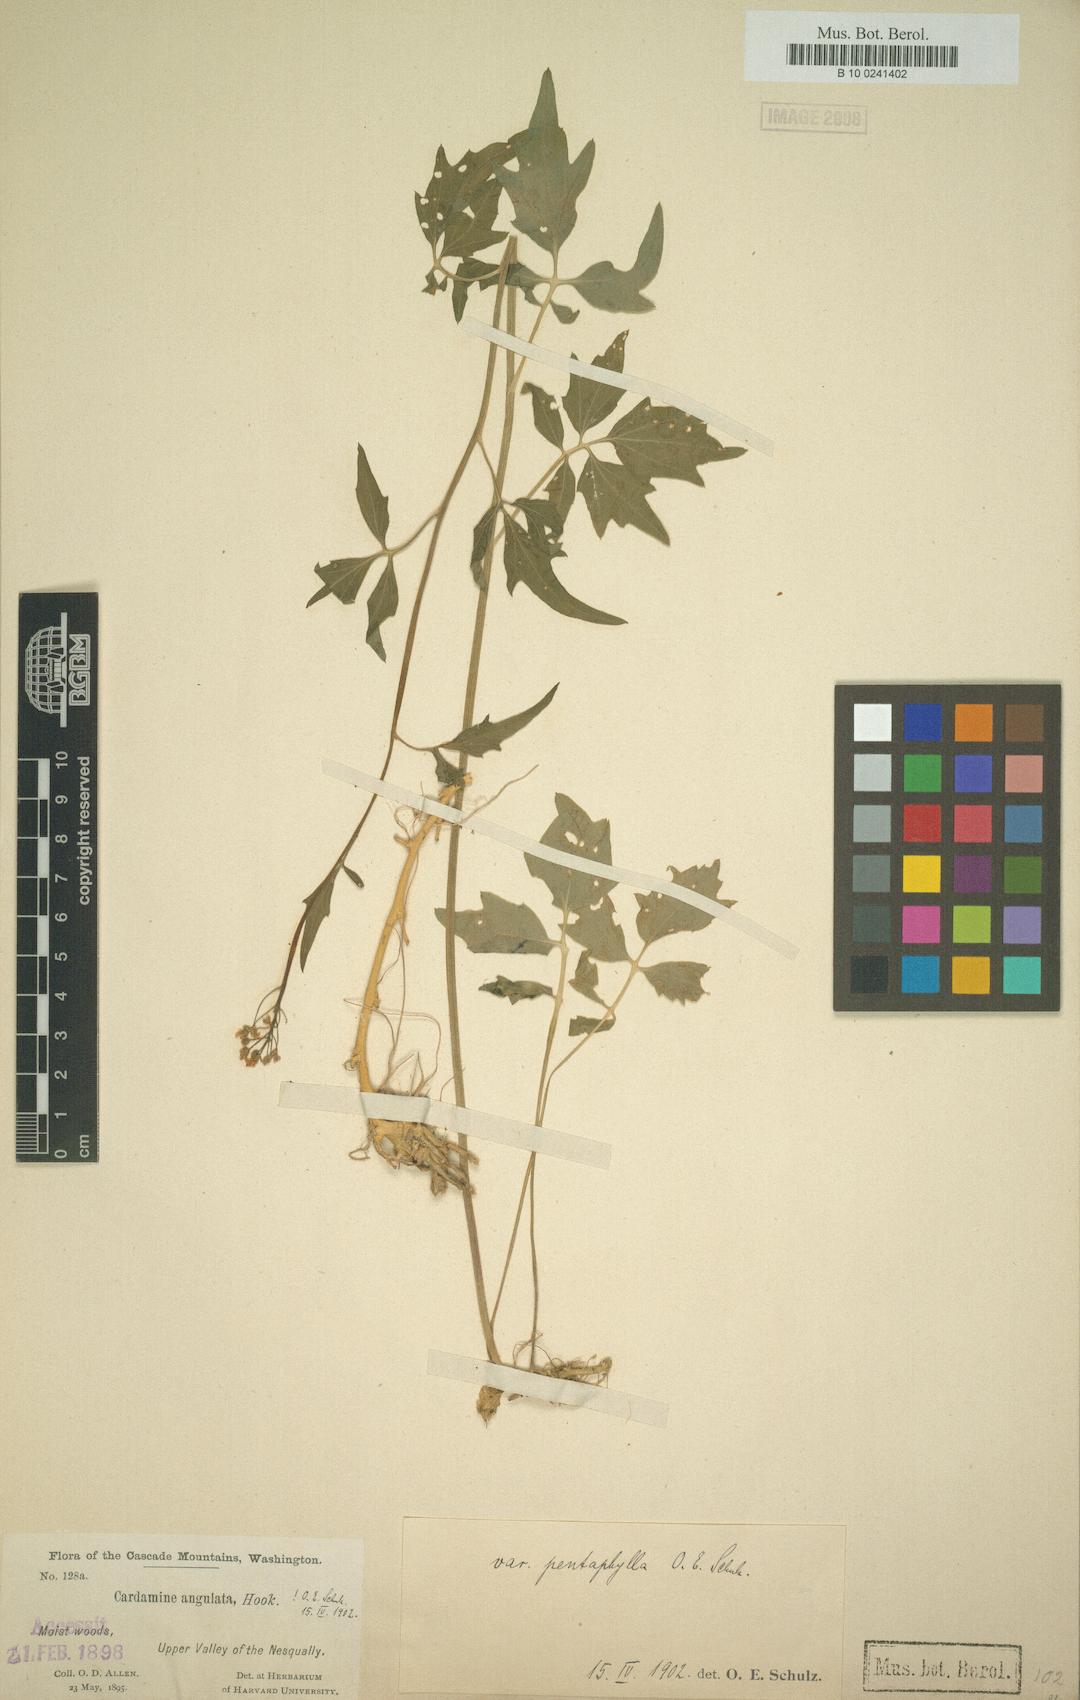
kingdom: Plantae
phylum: Tracheophyta
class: Magnoliopsida
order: Brassicales
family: Brassicaceae
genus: Cardamine
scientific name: Cardamine angulata
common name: Angled bittercress
